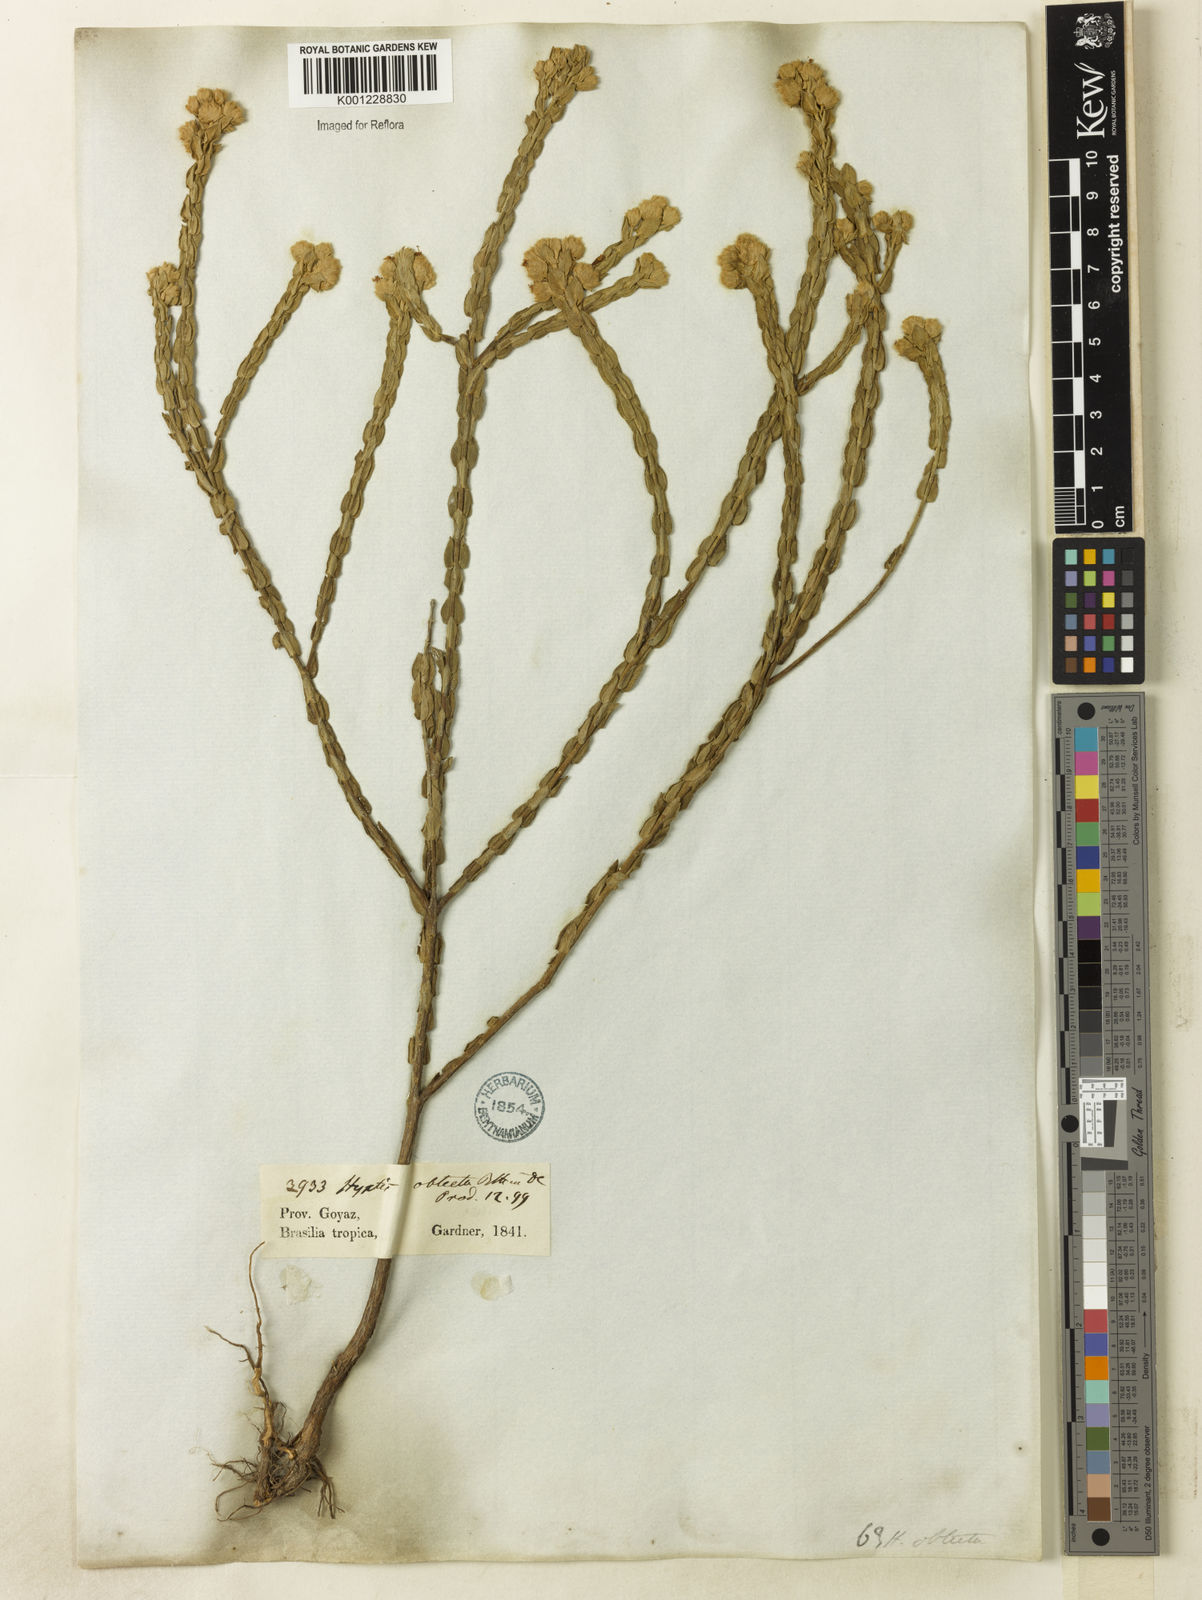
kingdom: Plantae
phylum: Tracheophyta
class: Magnoliopsida
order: Lamiales
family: Lamiaceae
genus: Hyptis
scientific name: Hyptis obtecta
